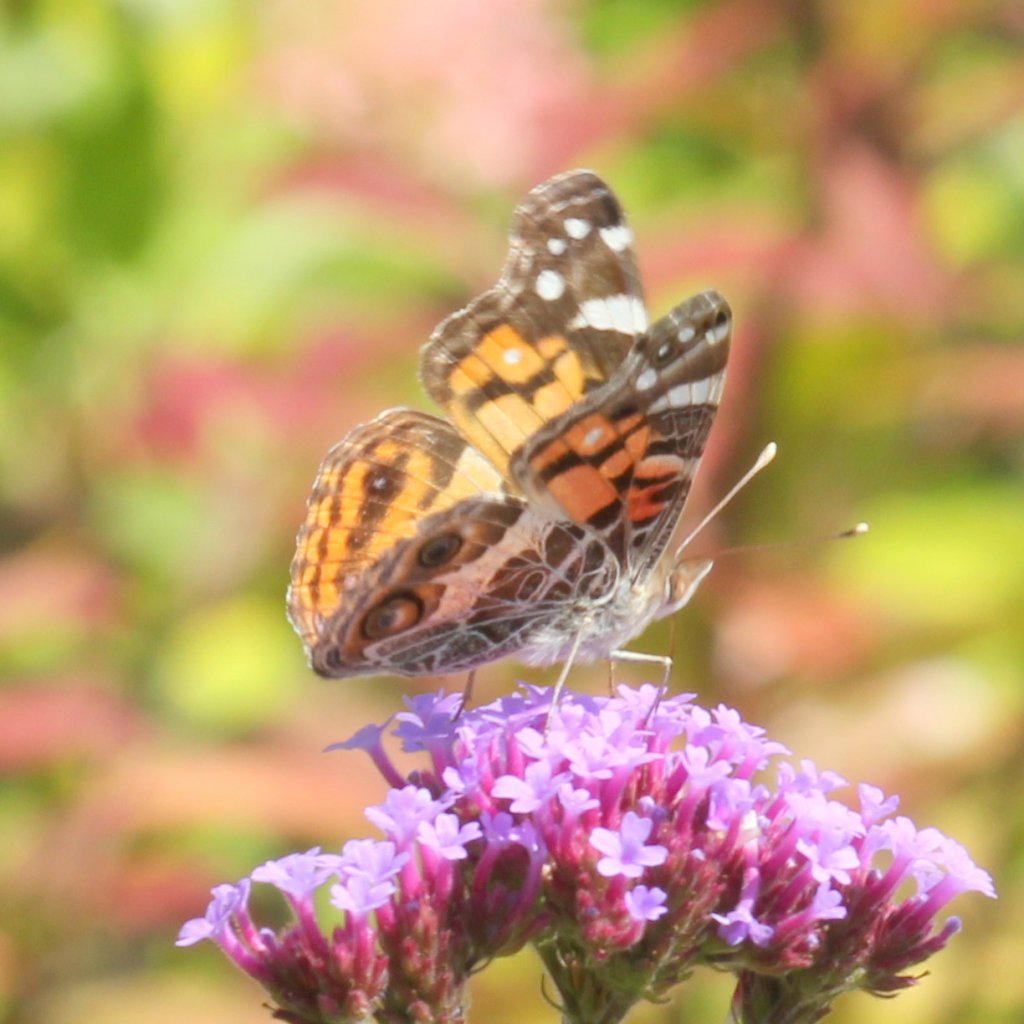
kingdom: Animalia
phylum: Arthropoda
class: Insecta
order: Lepidoptera
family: Nymphalidae
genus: Vanessa
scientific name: Vanessa virginiensis
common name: American Lady
